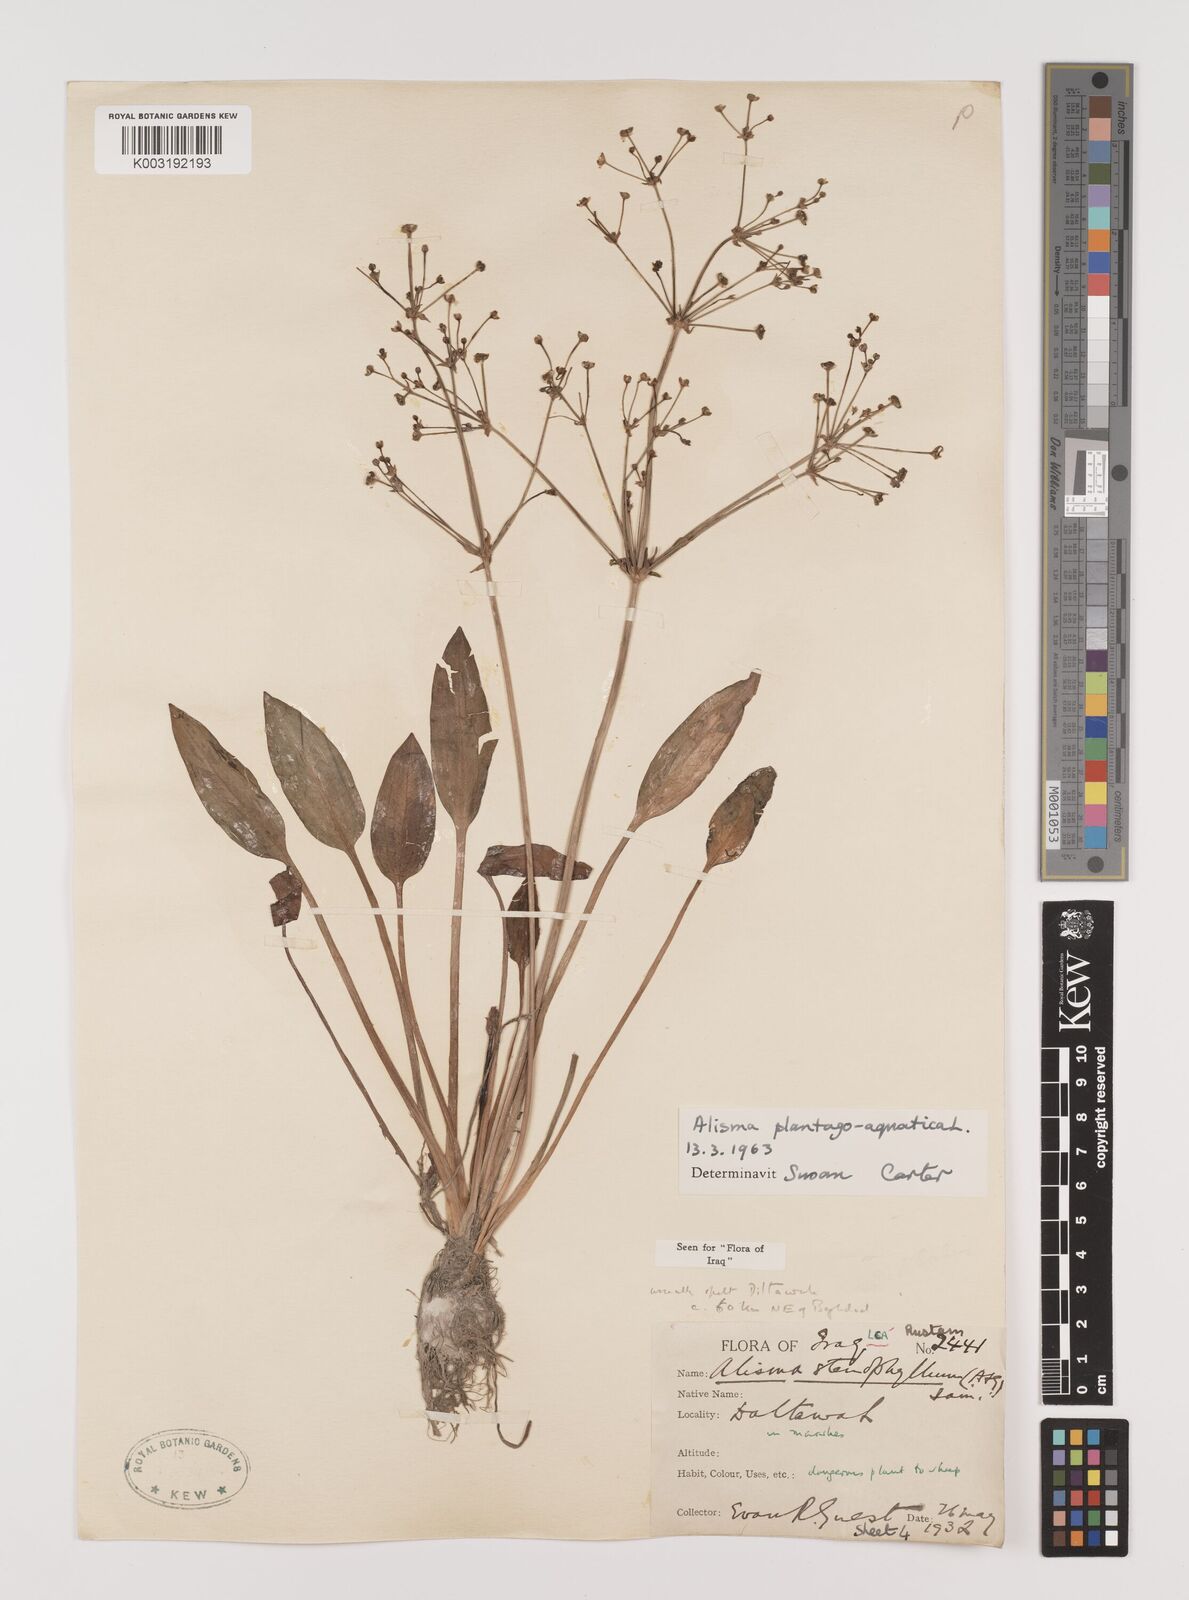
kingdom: Plantae
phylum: Tracheophyta
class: Liliopsida
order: Alismatales
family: Alismataceae
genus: Alisma
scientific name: Alisma plantago-aquatica
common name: Water-plantain
